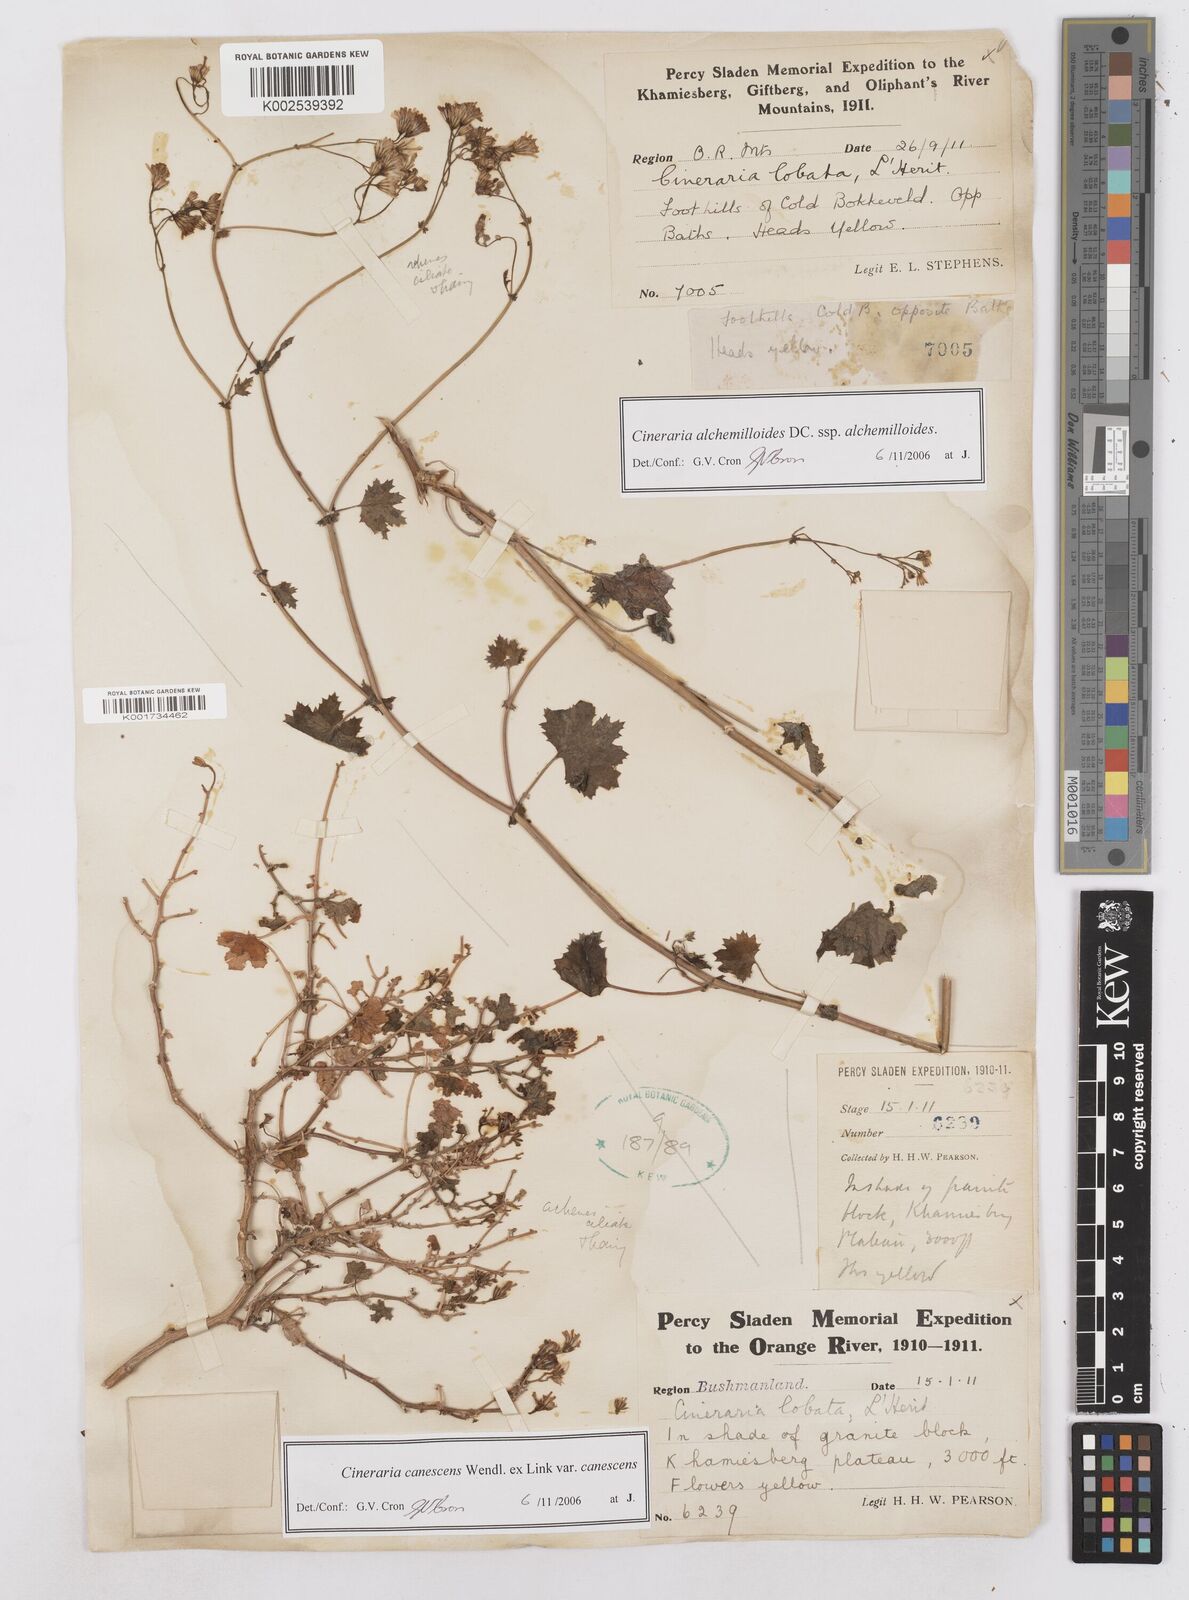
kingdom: Plantae
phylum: Tracheophyta
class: Magnoliopsida
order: Asterales
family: Asteraceae
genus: Cineraria
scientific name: Cineraria alchemilloides
